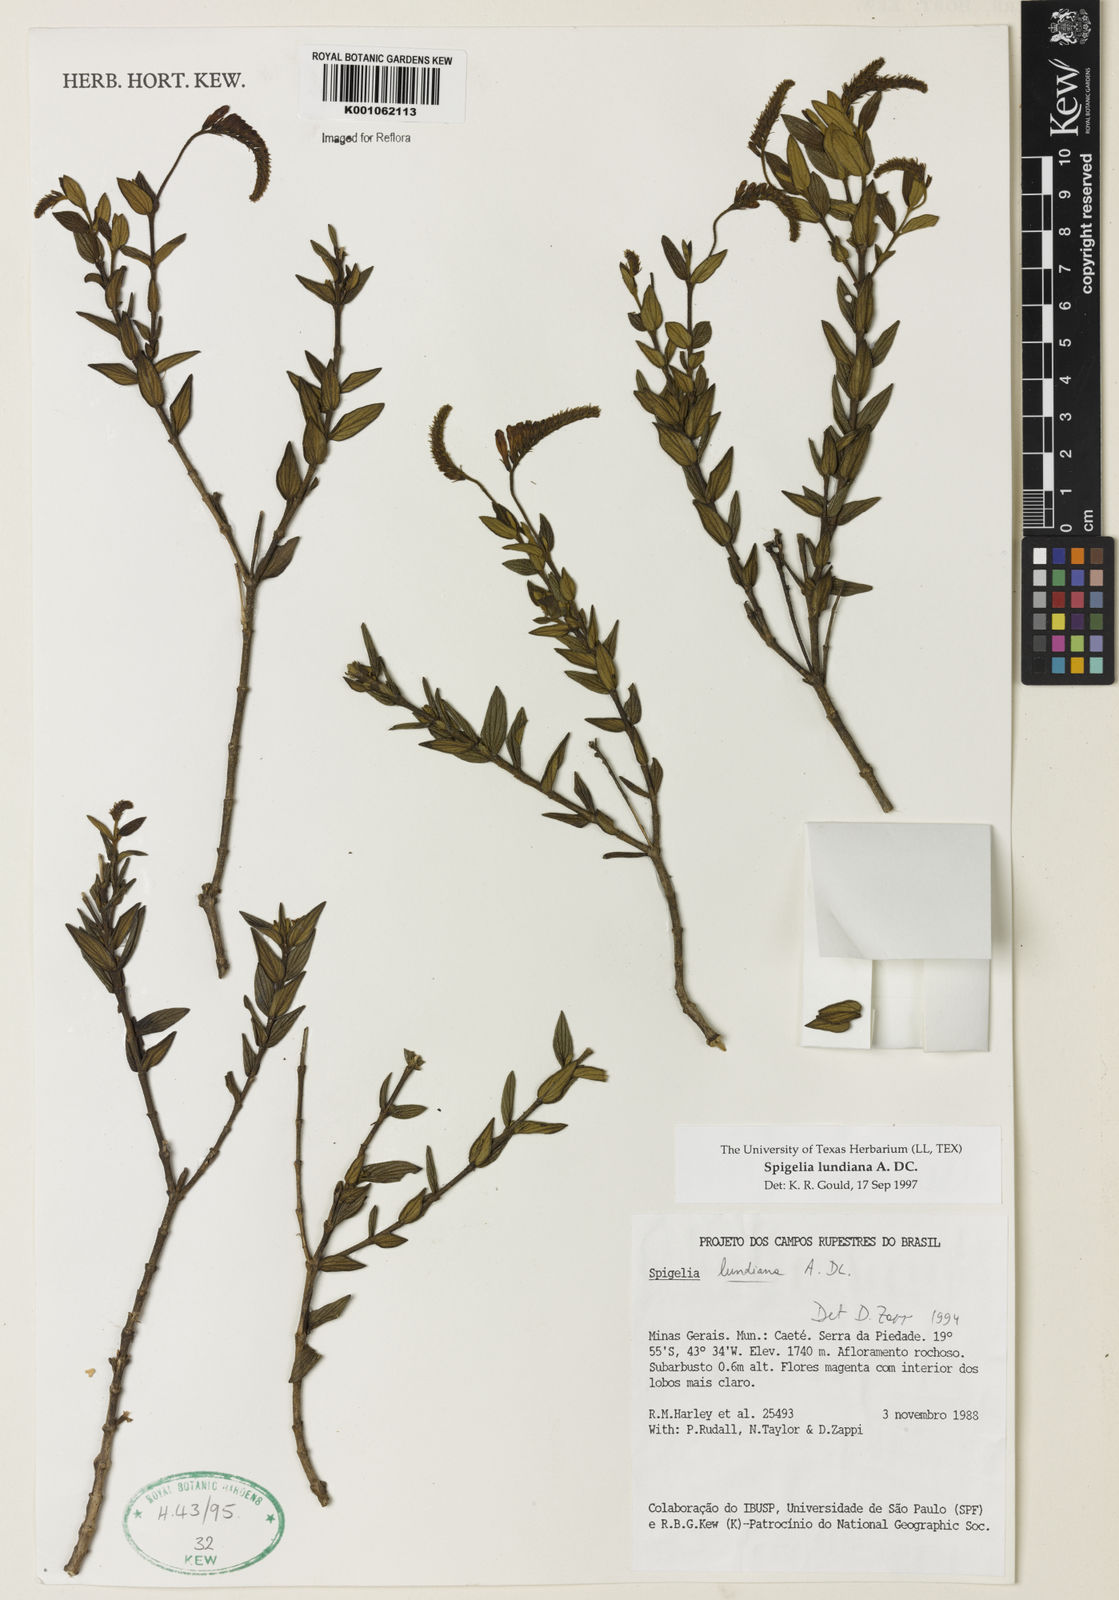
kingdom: Plantae
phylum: Tracheophyta
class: Magnoliopsida
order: Gentianales
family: Loganiaceae
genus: Spigelia
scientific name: Spigelia
